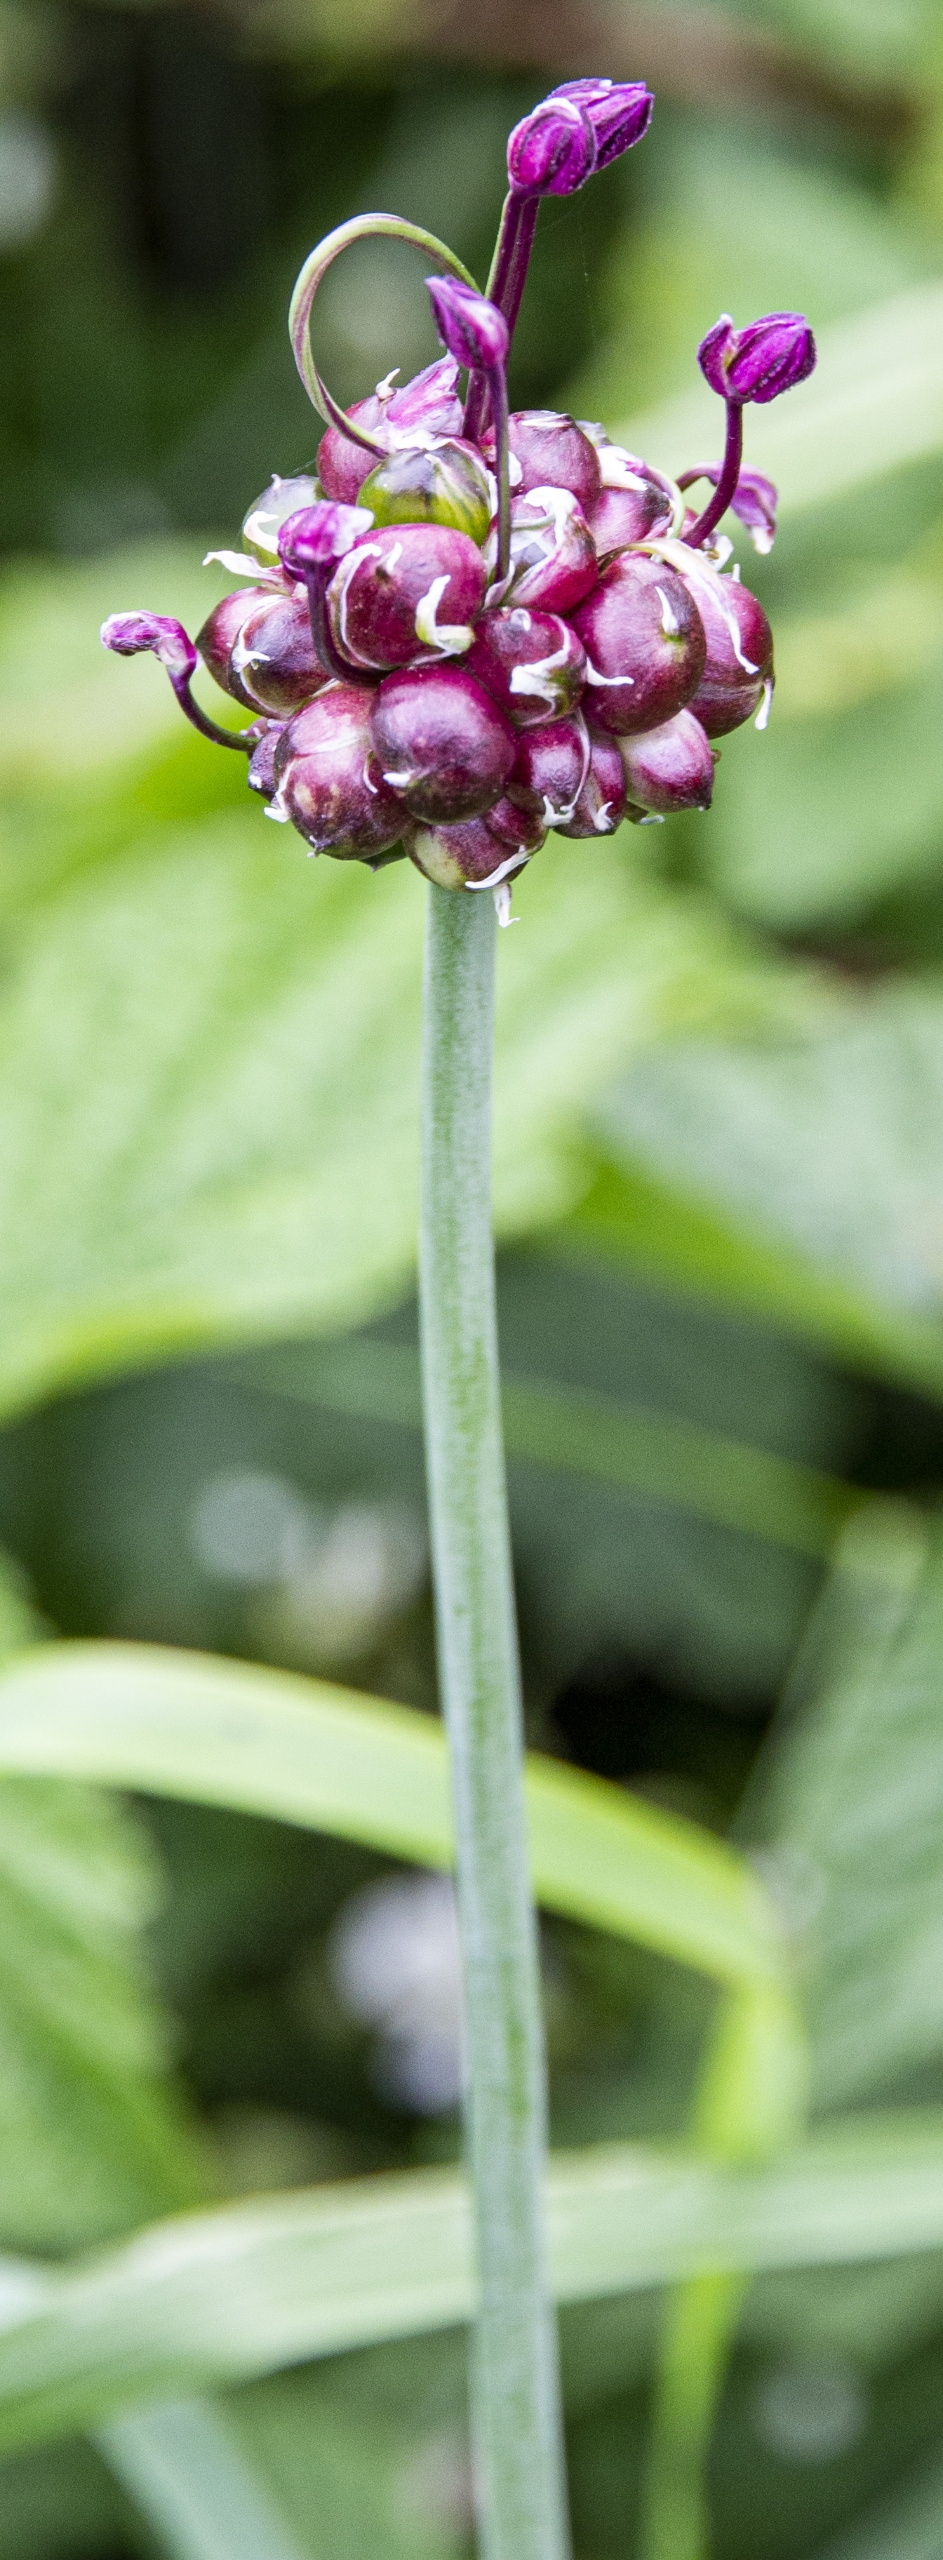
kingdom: Plantae
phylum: Tracheophyta
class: Liliopsida
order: Asparagales
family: Amaryllidaceae
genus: Allium
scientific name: Allium scorodoprasum
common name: Skov-løg
